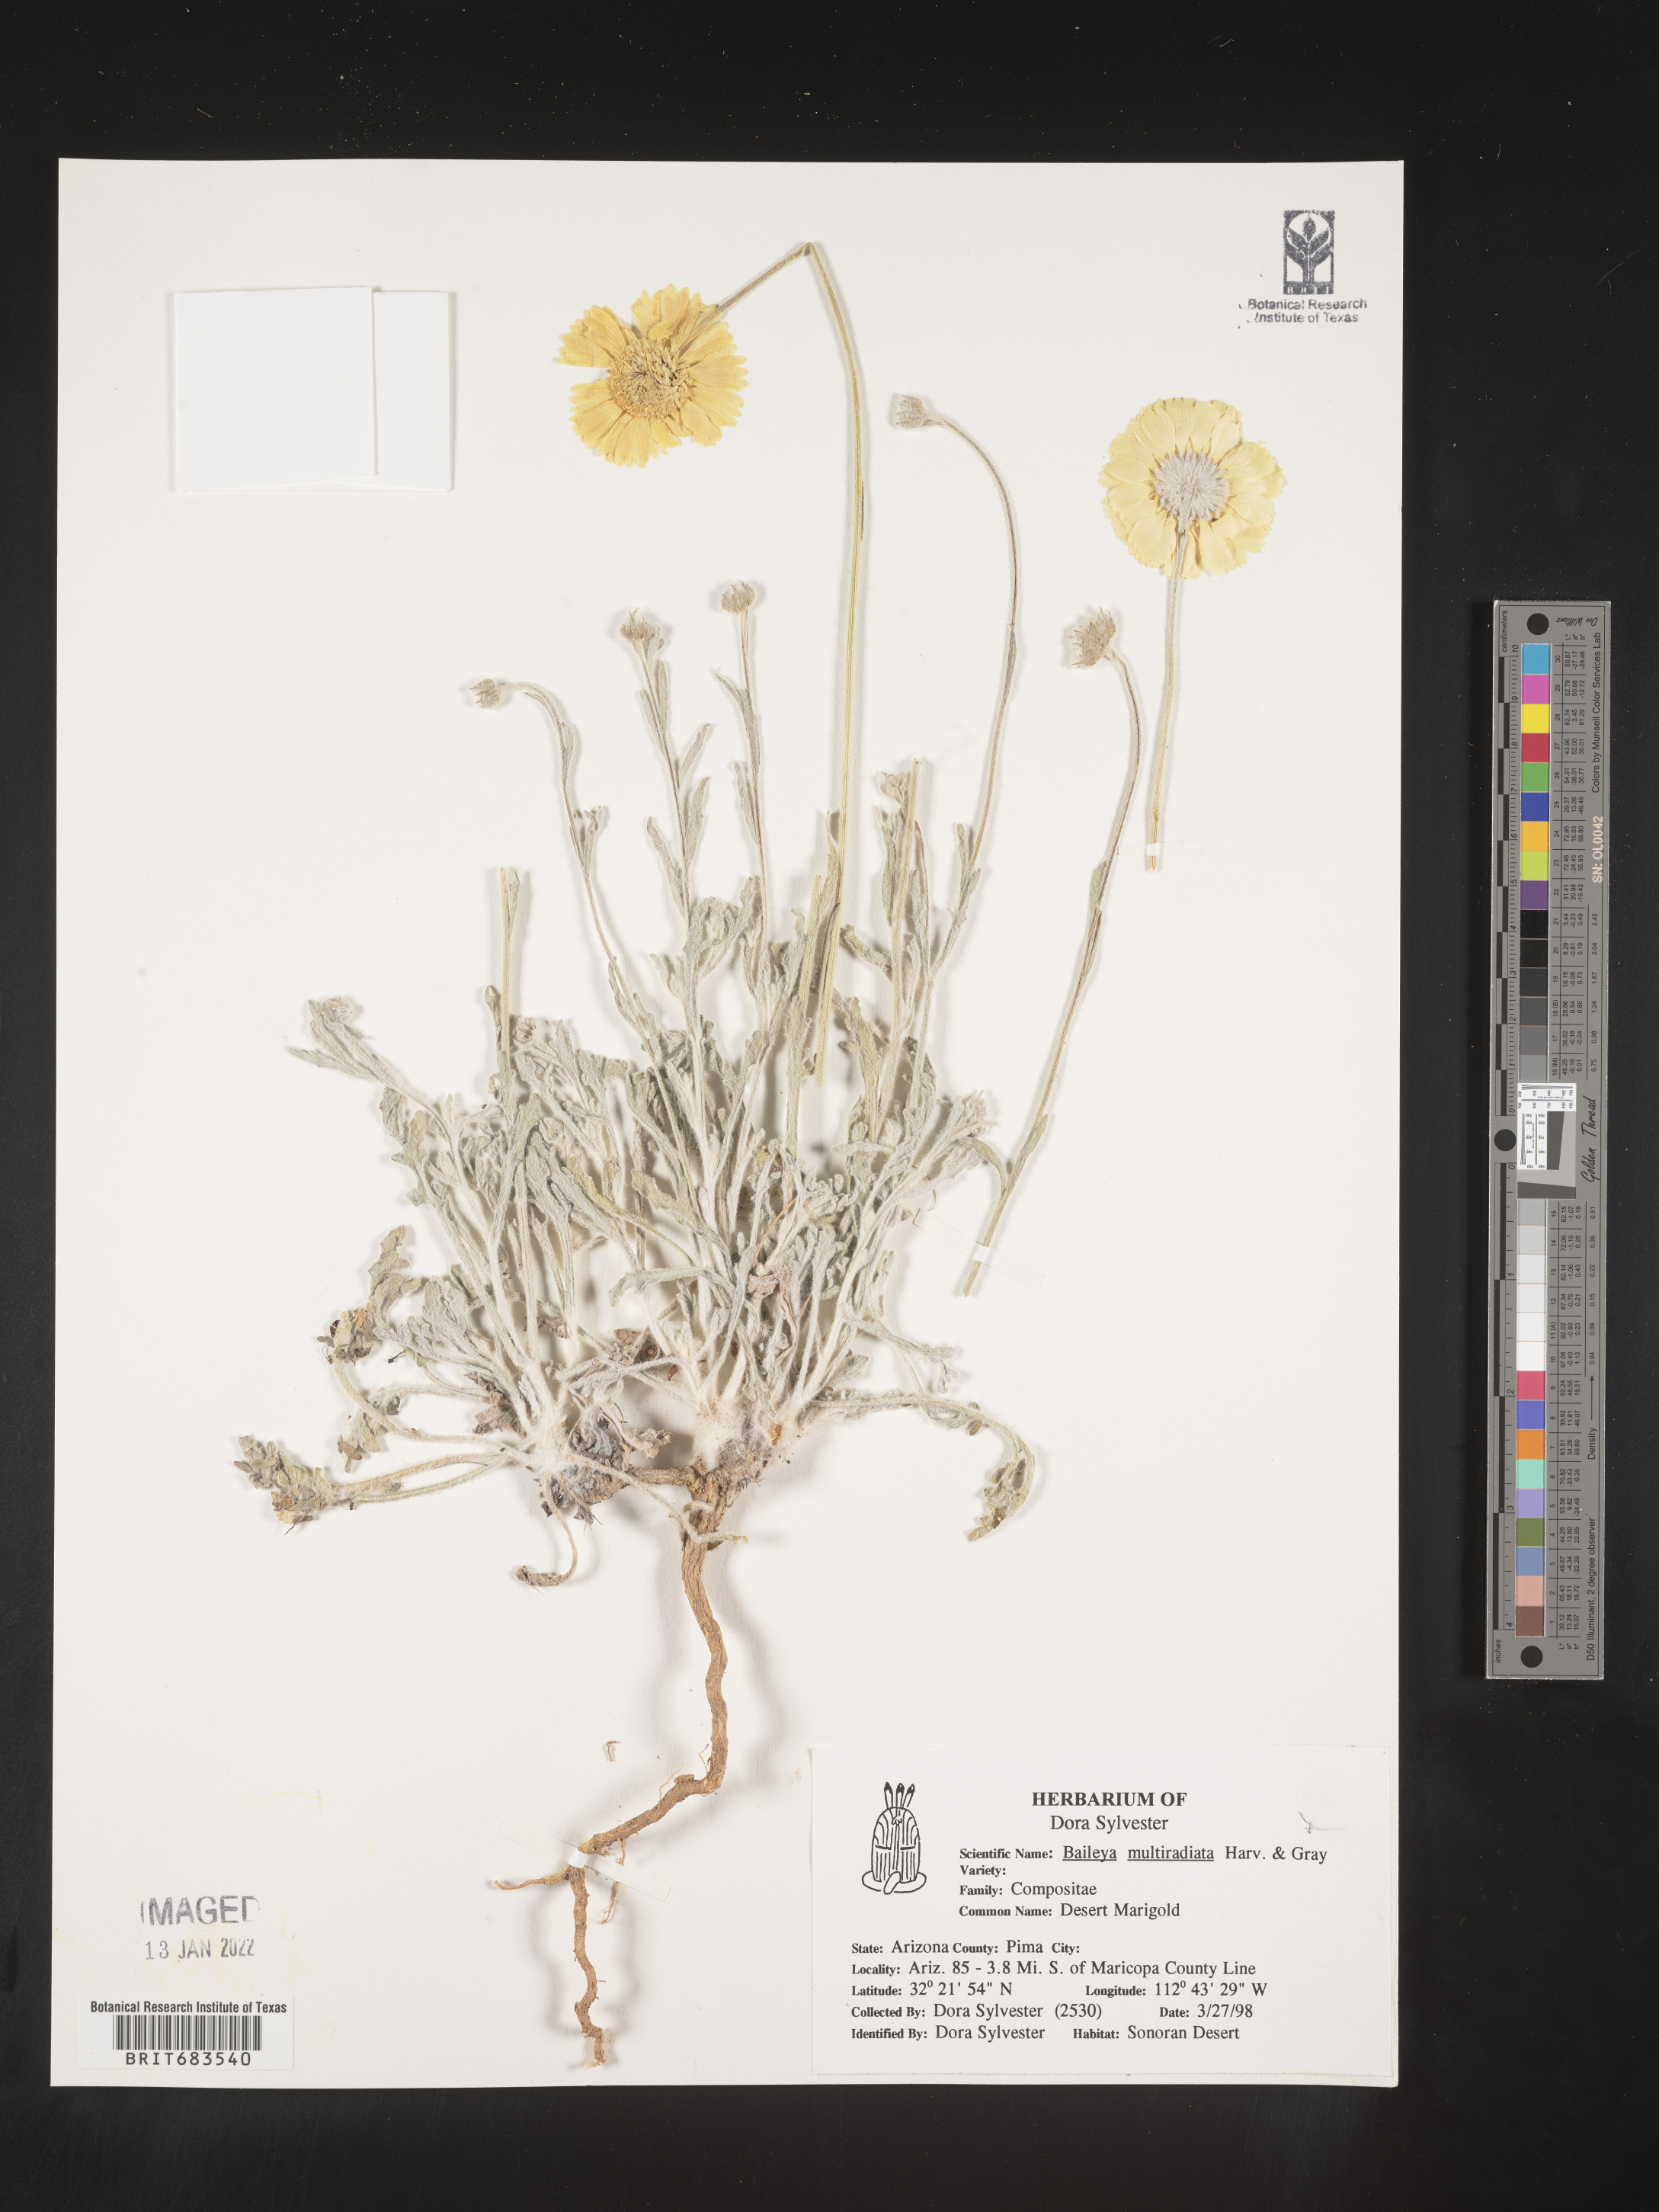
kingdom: Plantae
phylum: Tracheophyta
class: Magnoliopsida
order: Asterales
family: Asteraceae
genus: Baileya
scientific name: Baileya multiradiata
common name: Desert-marigold
